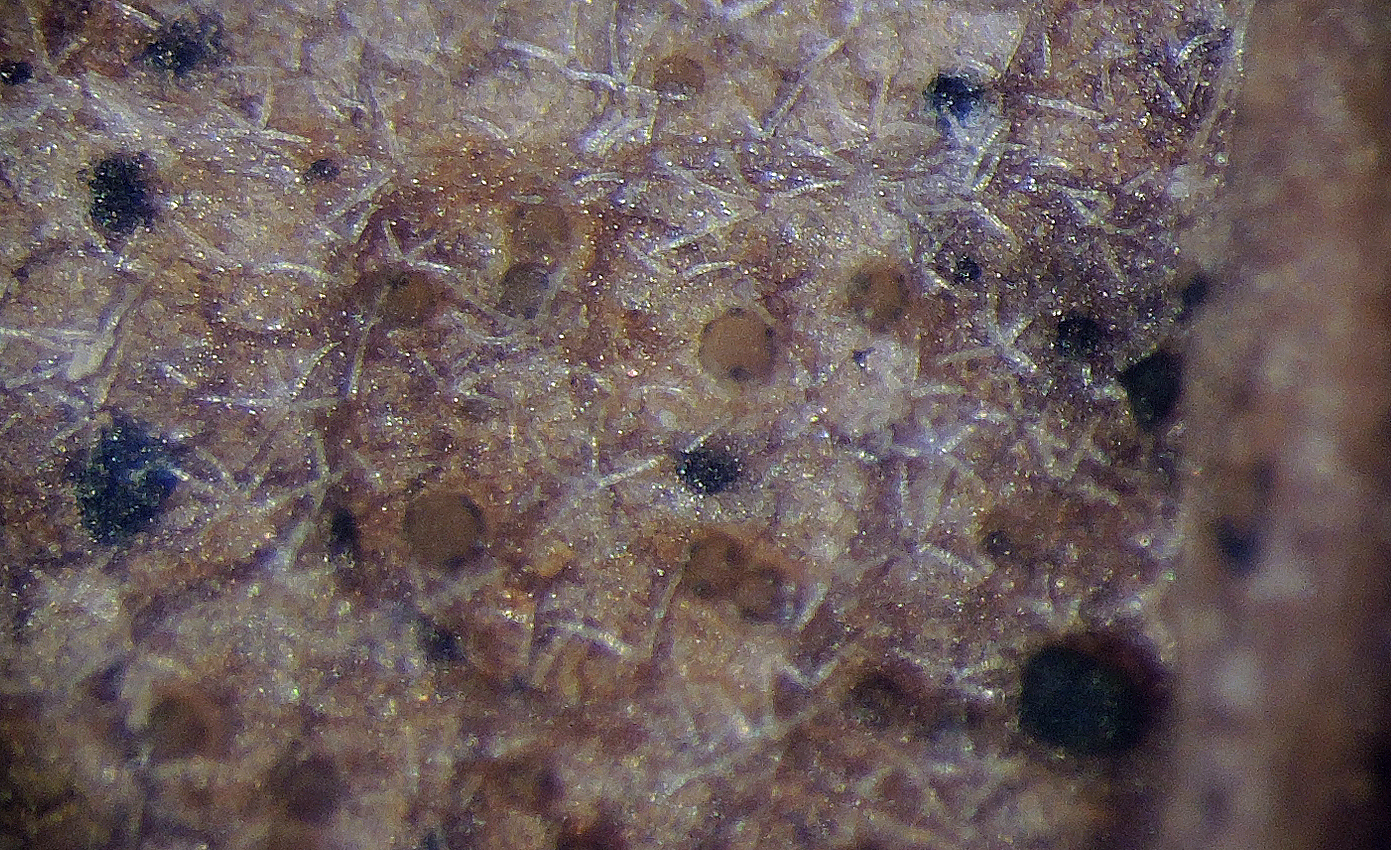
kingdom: Fungi
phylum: Ascomycota
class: Leotiomycetes
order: Helotiales
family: Discinellaceae
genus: Naevala
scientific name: Naevala perexigua
